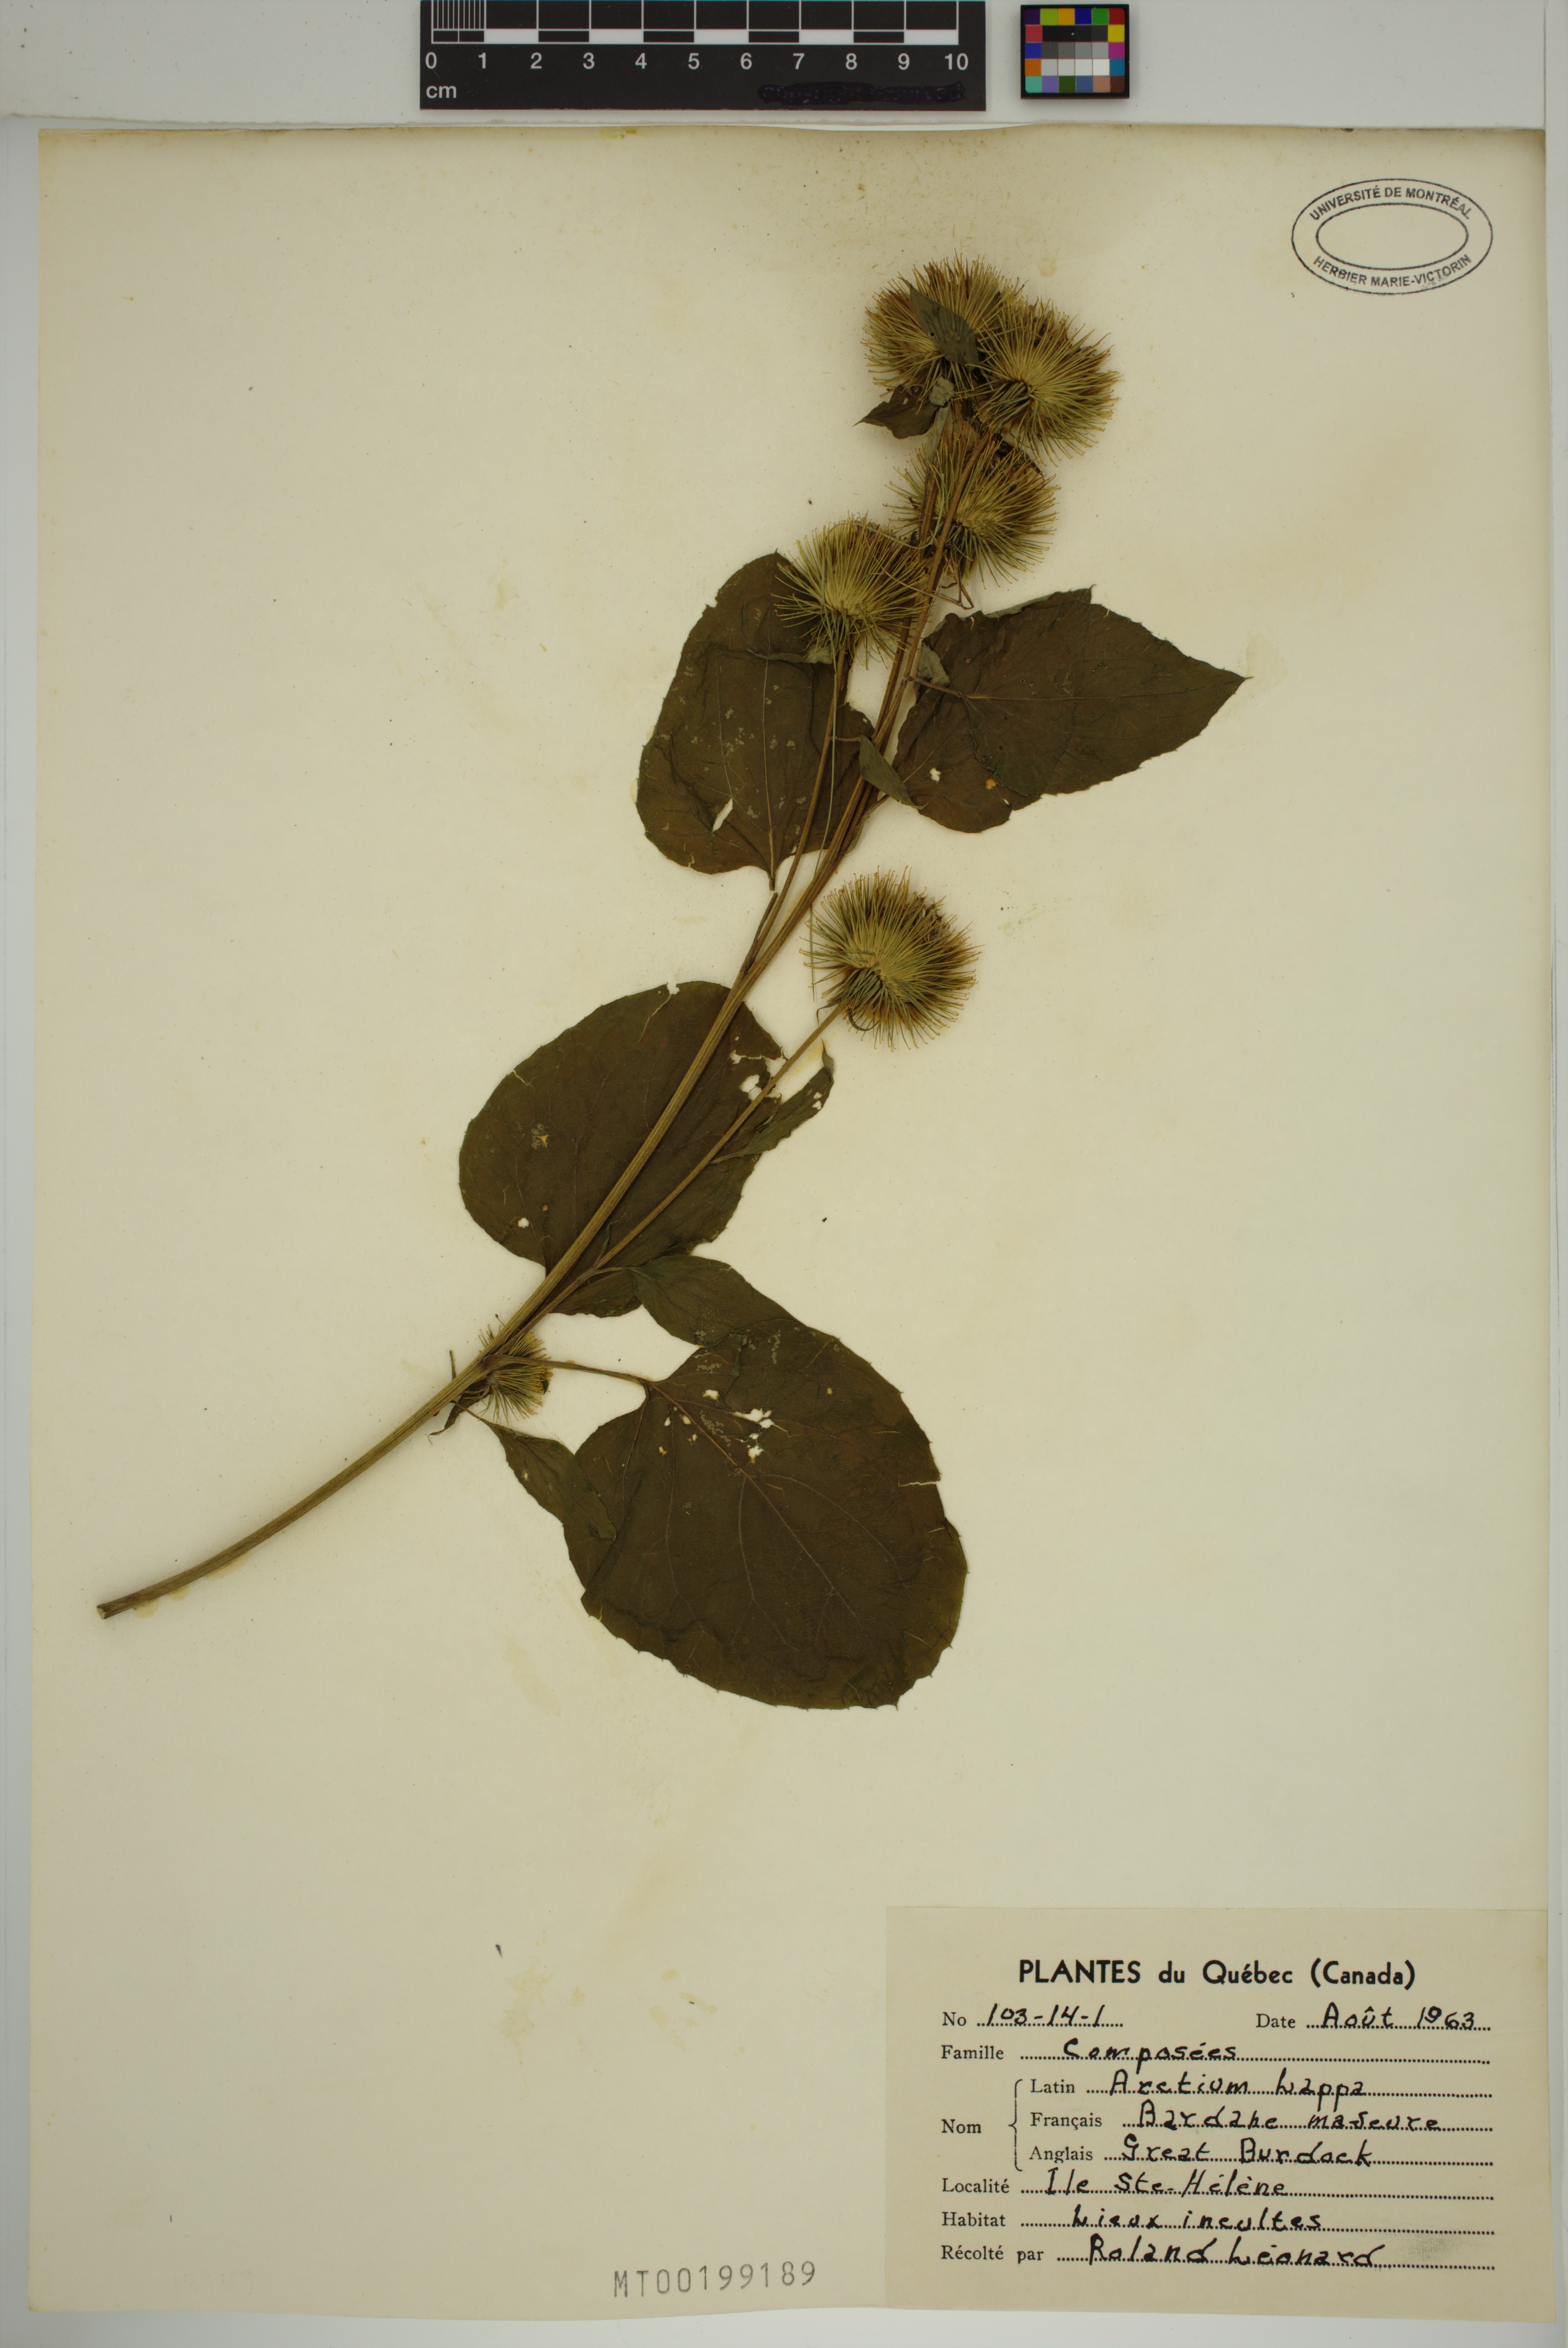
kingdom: Plantae
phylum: Tracheophyta
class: Magnoliopsida
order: Asterales
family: Asteraceae
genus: Arctium
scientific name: Arctium lappa
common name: Greater burdock
